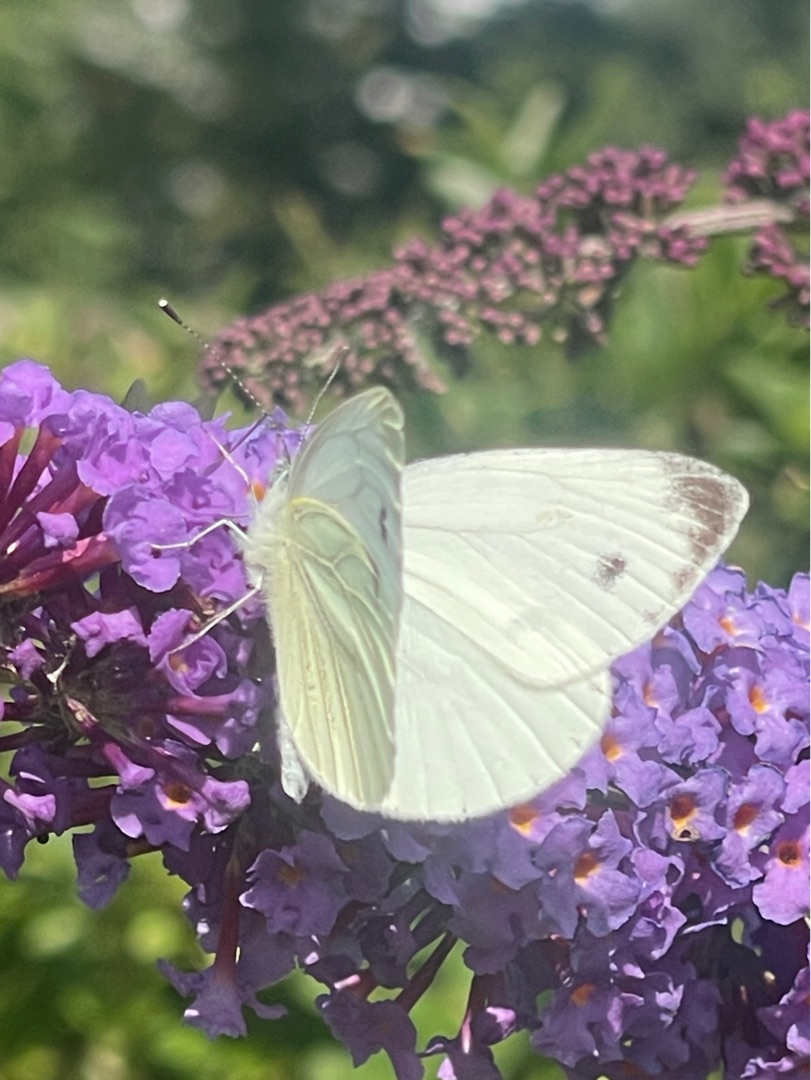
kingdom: Animalia
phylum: Arthropoda
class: Insecta
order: Lepidoptera
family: Pieridae
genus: Pieris
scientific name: Pieris napi
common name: Grønåret kålsommerfugl
